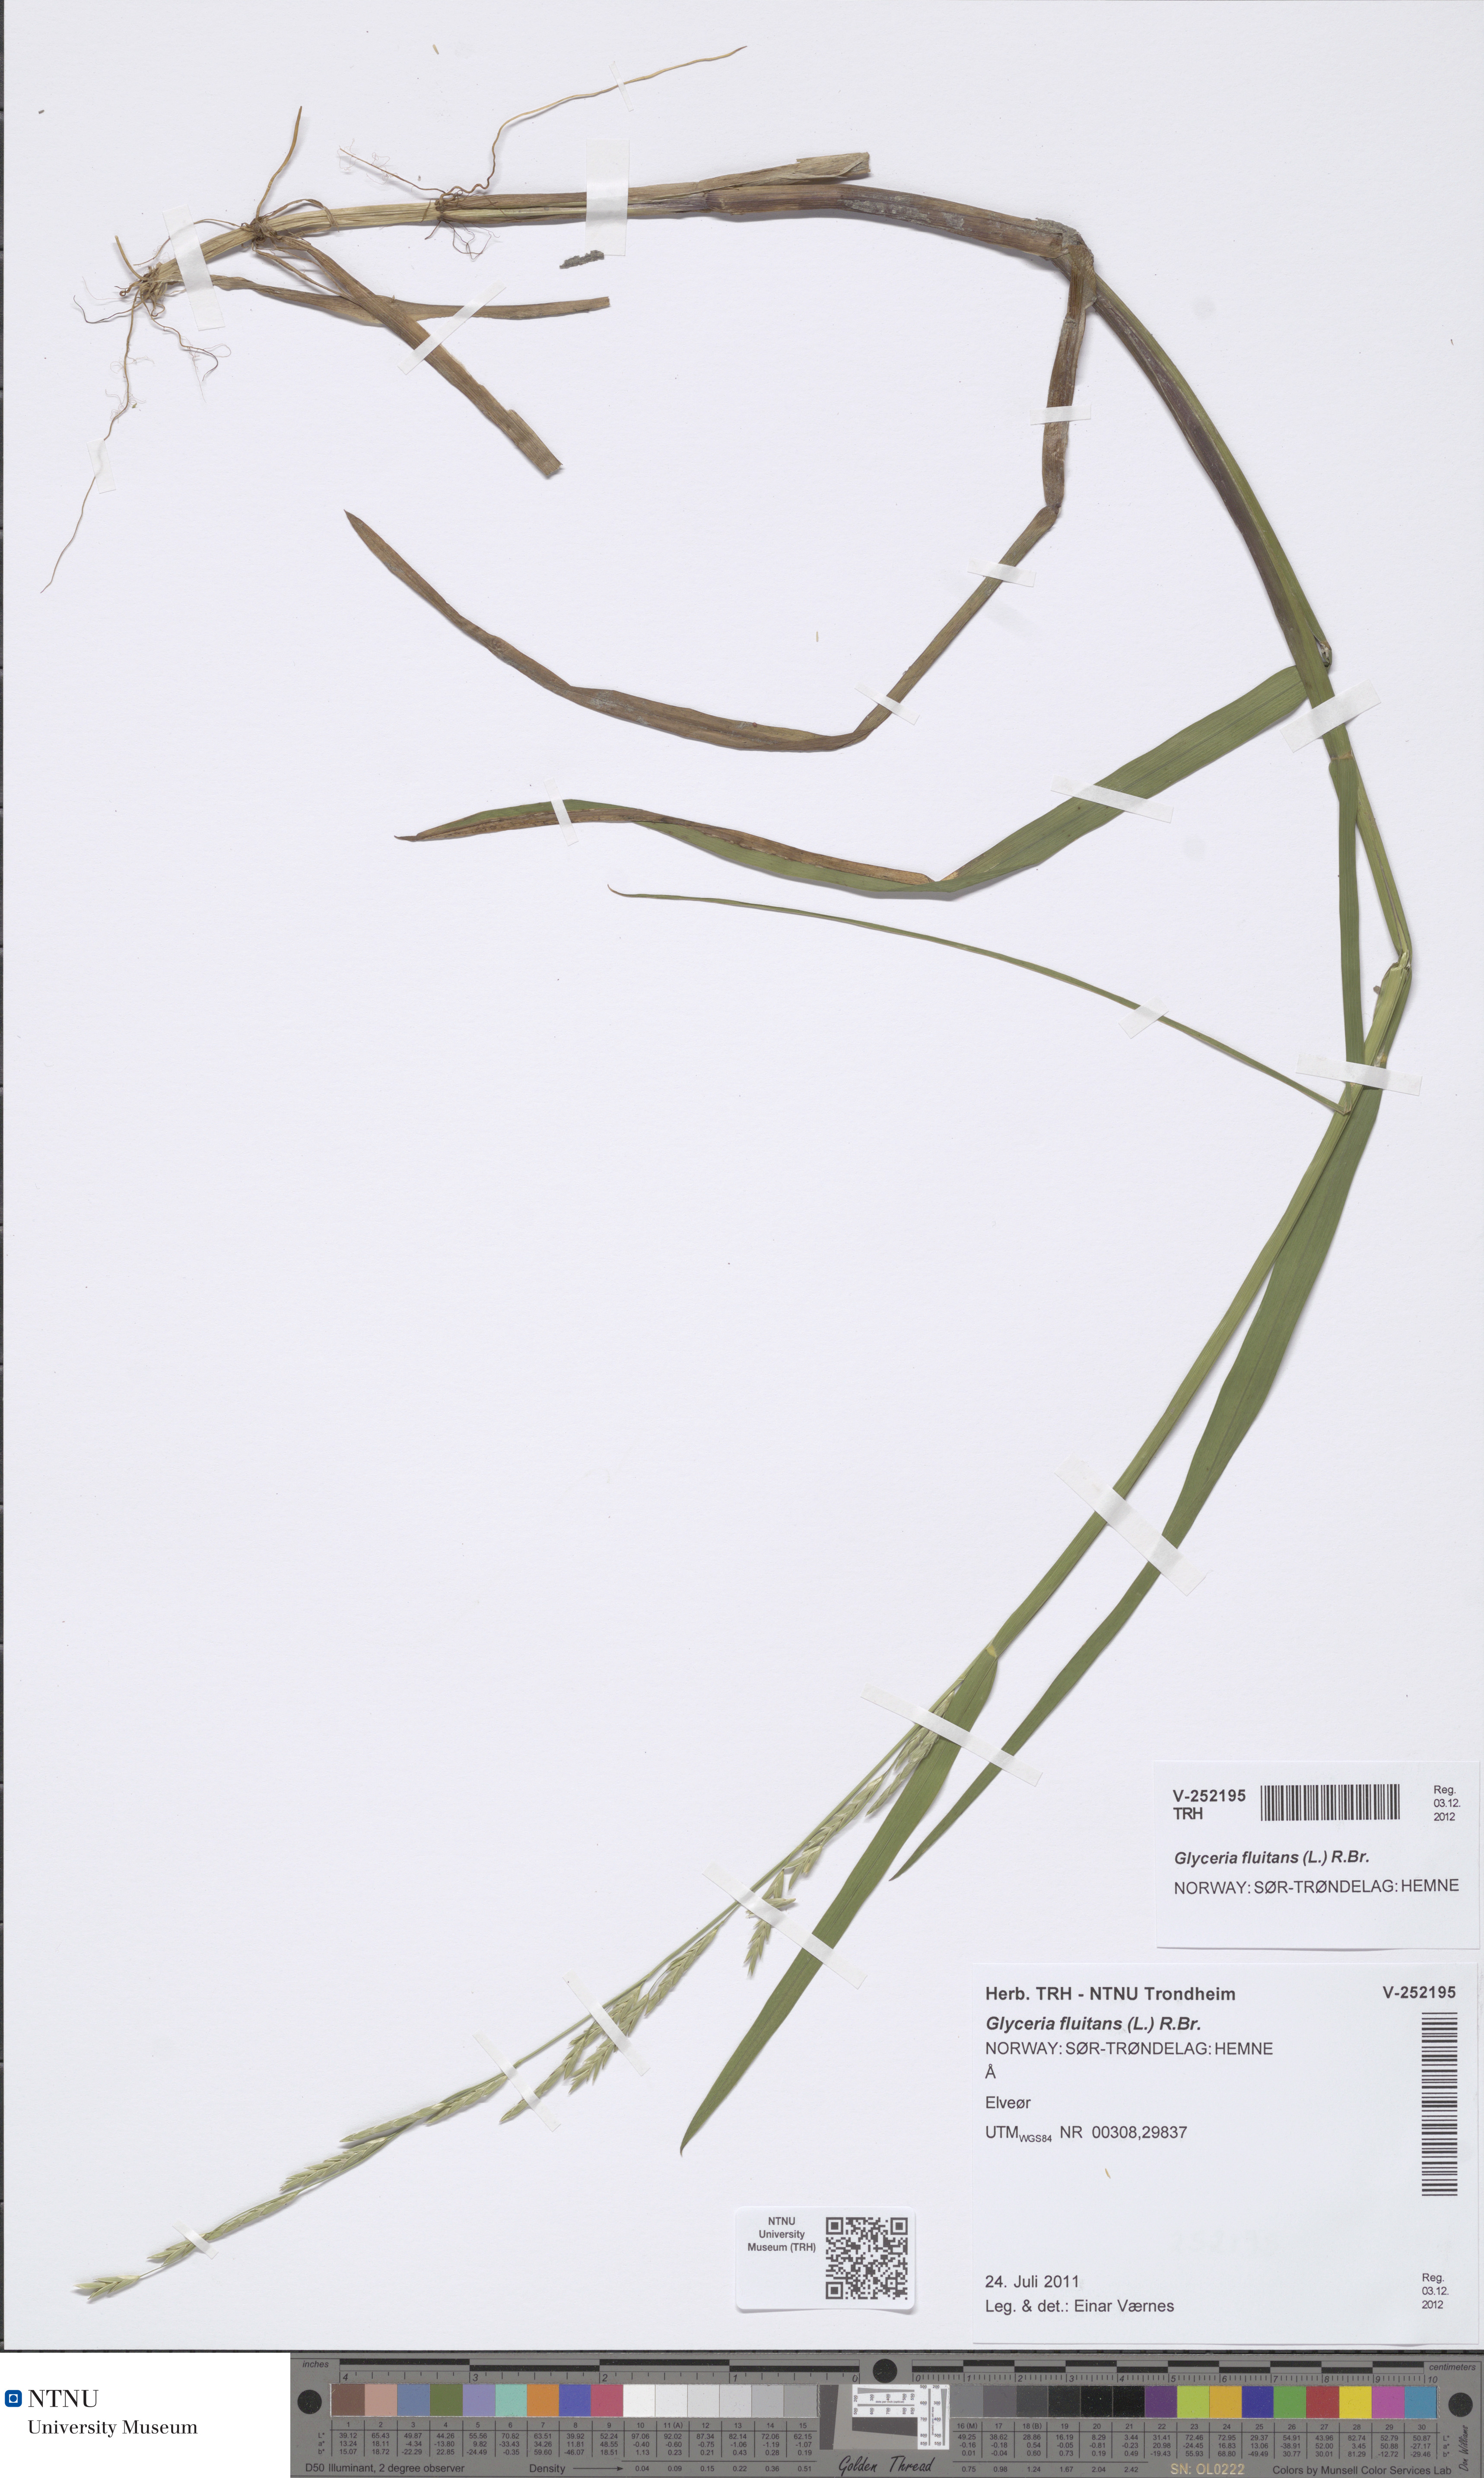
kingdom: Plantae
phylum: Tracheophyta
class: Liliopsida
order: Poales
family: Poaceae
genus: Glyceria
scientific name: Glyceria fluitans
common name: Floating sweet-grass
